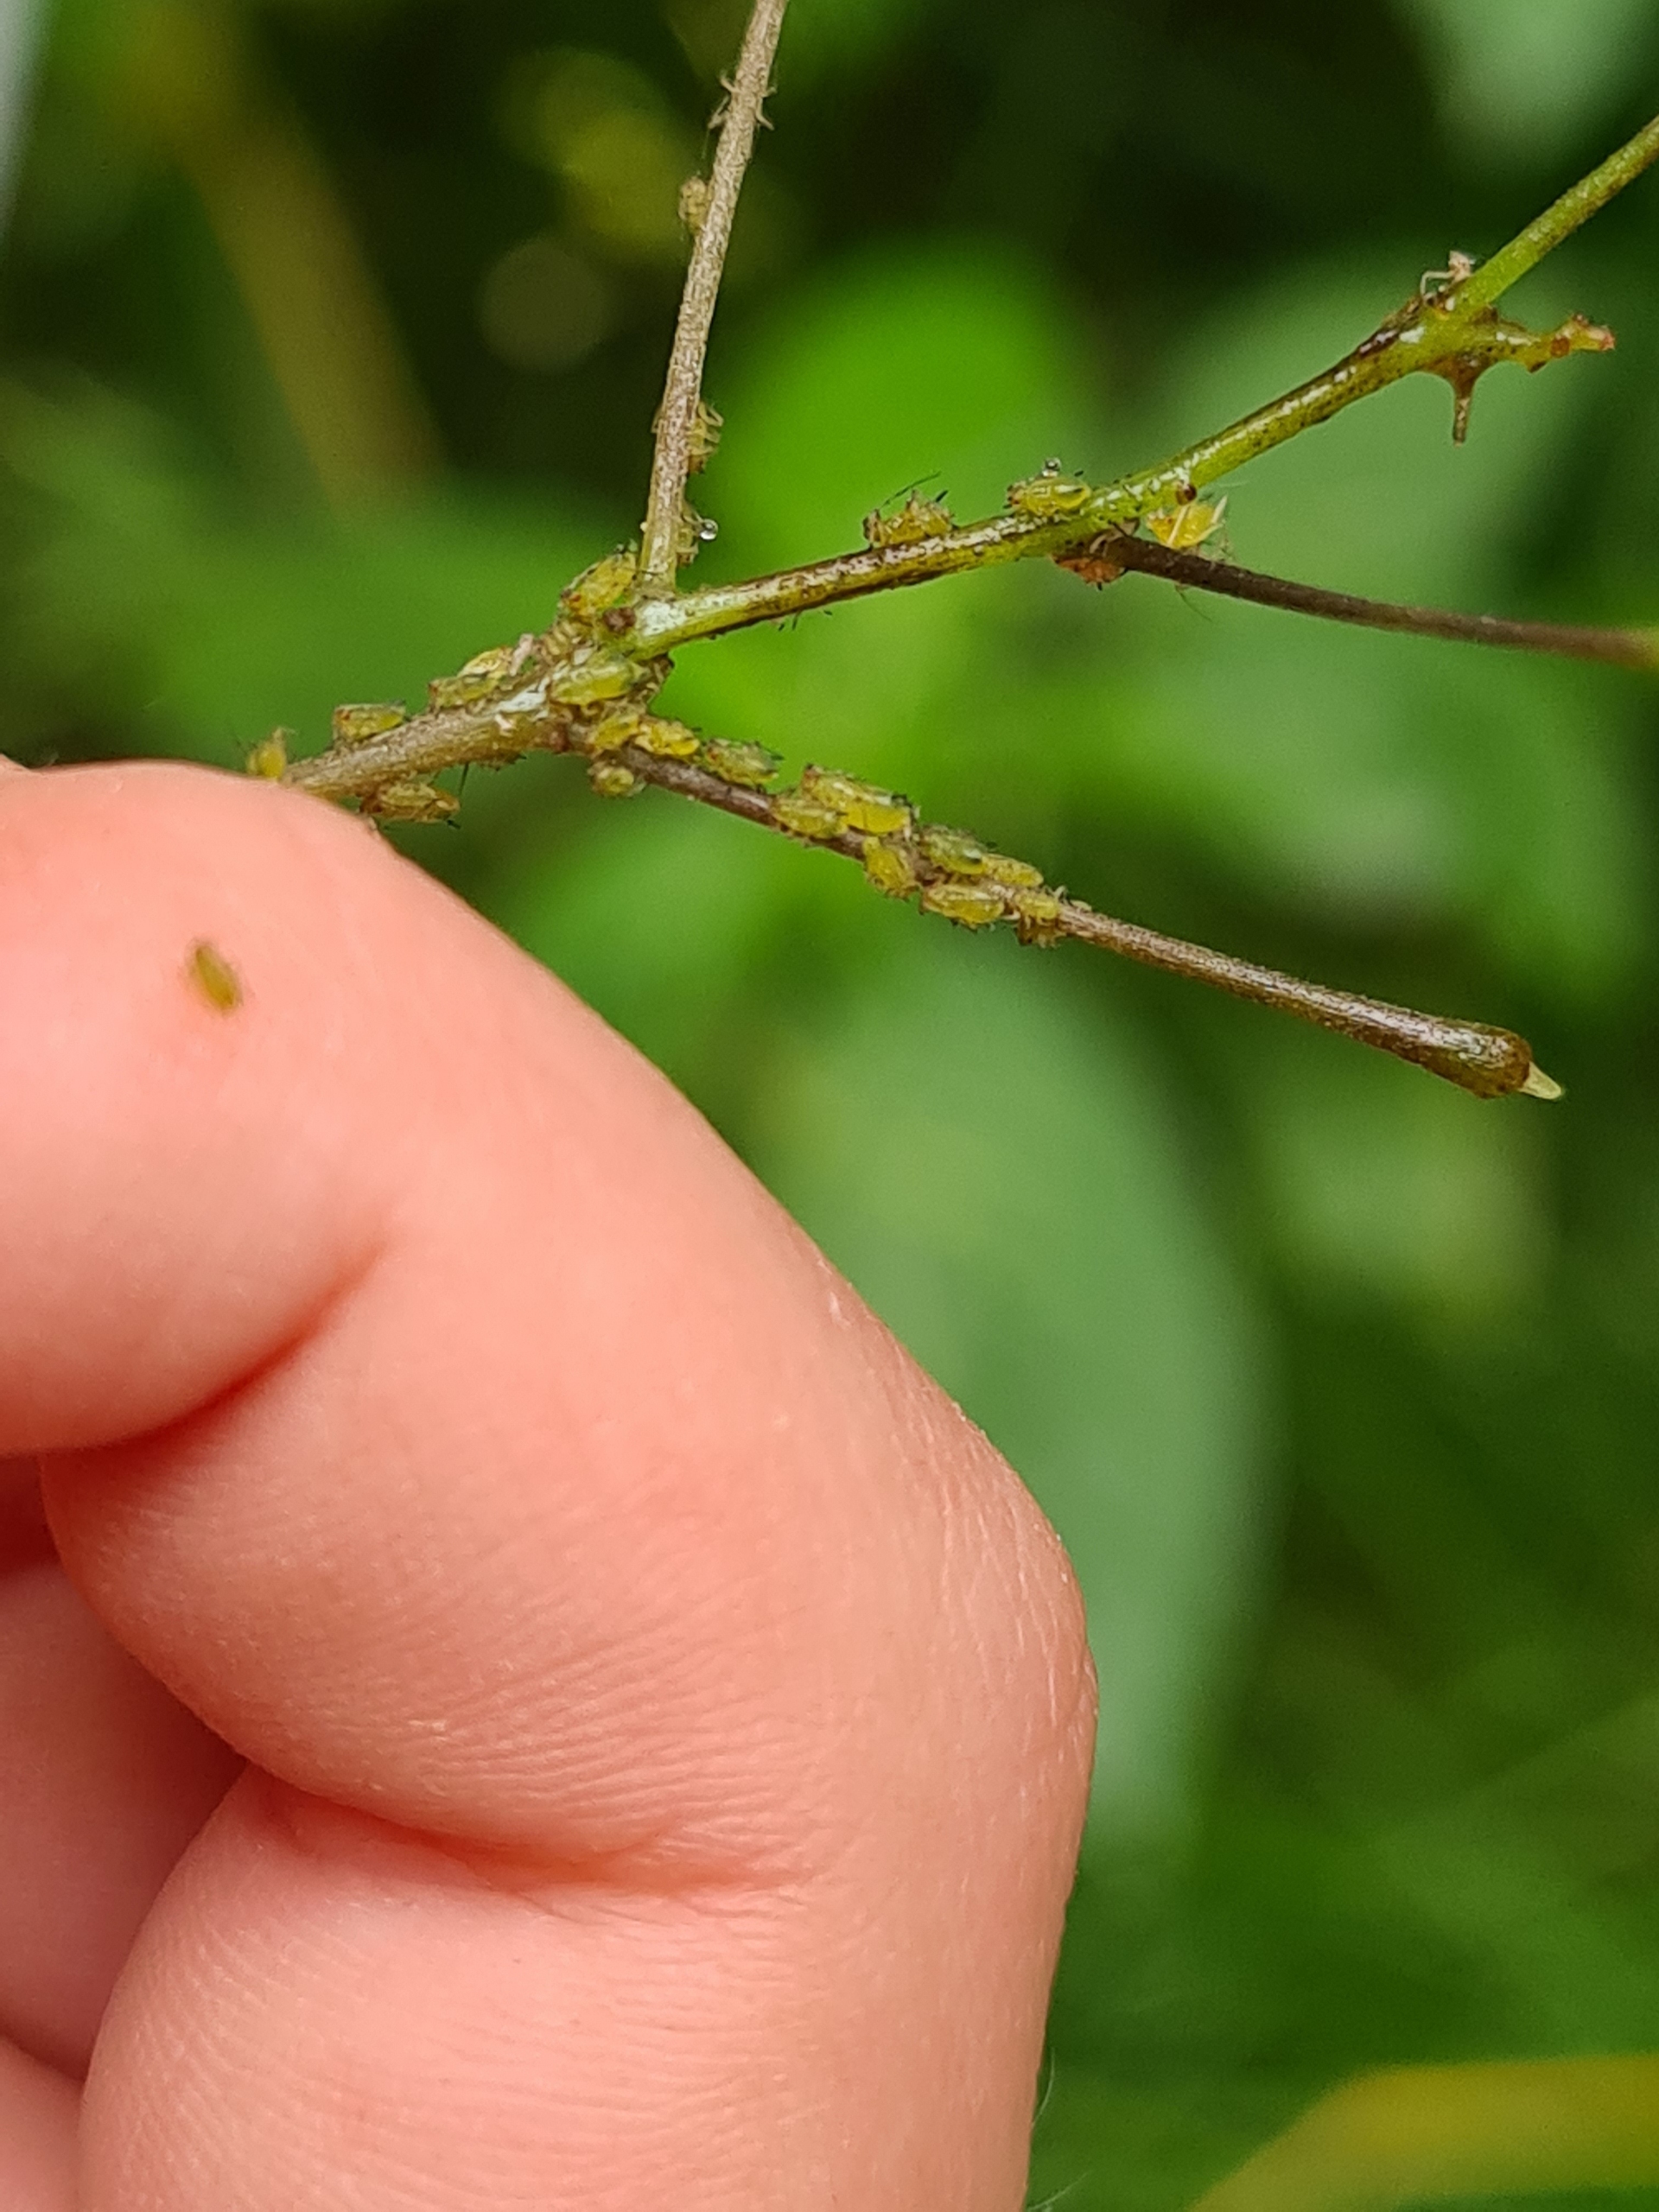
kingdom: Animalia
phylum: Arthropoda
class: Insecta
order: Hemiptera
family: Aphididae
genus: Impatientinum
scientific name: Impatientinum asiaticum
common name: Asiatisk balsaminbladlus
